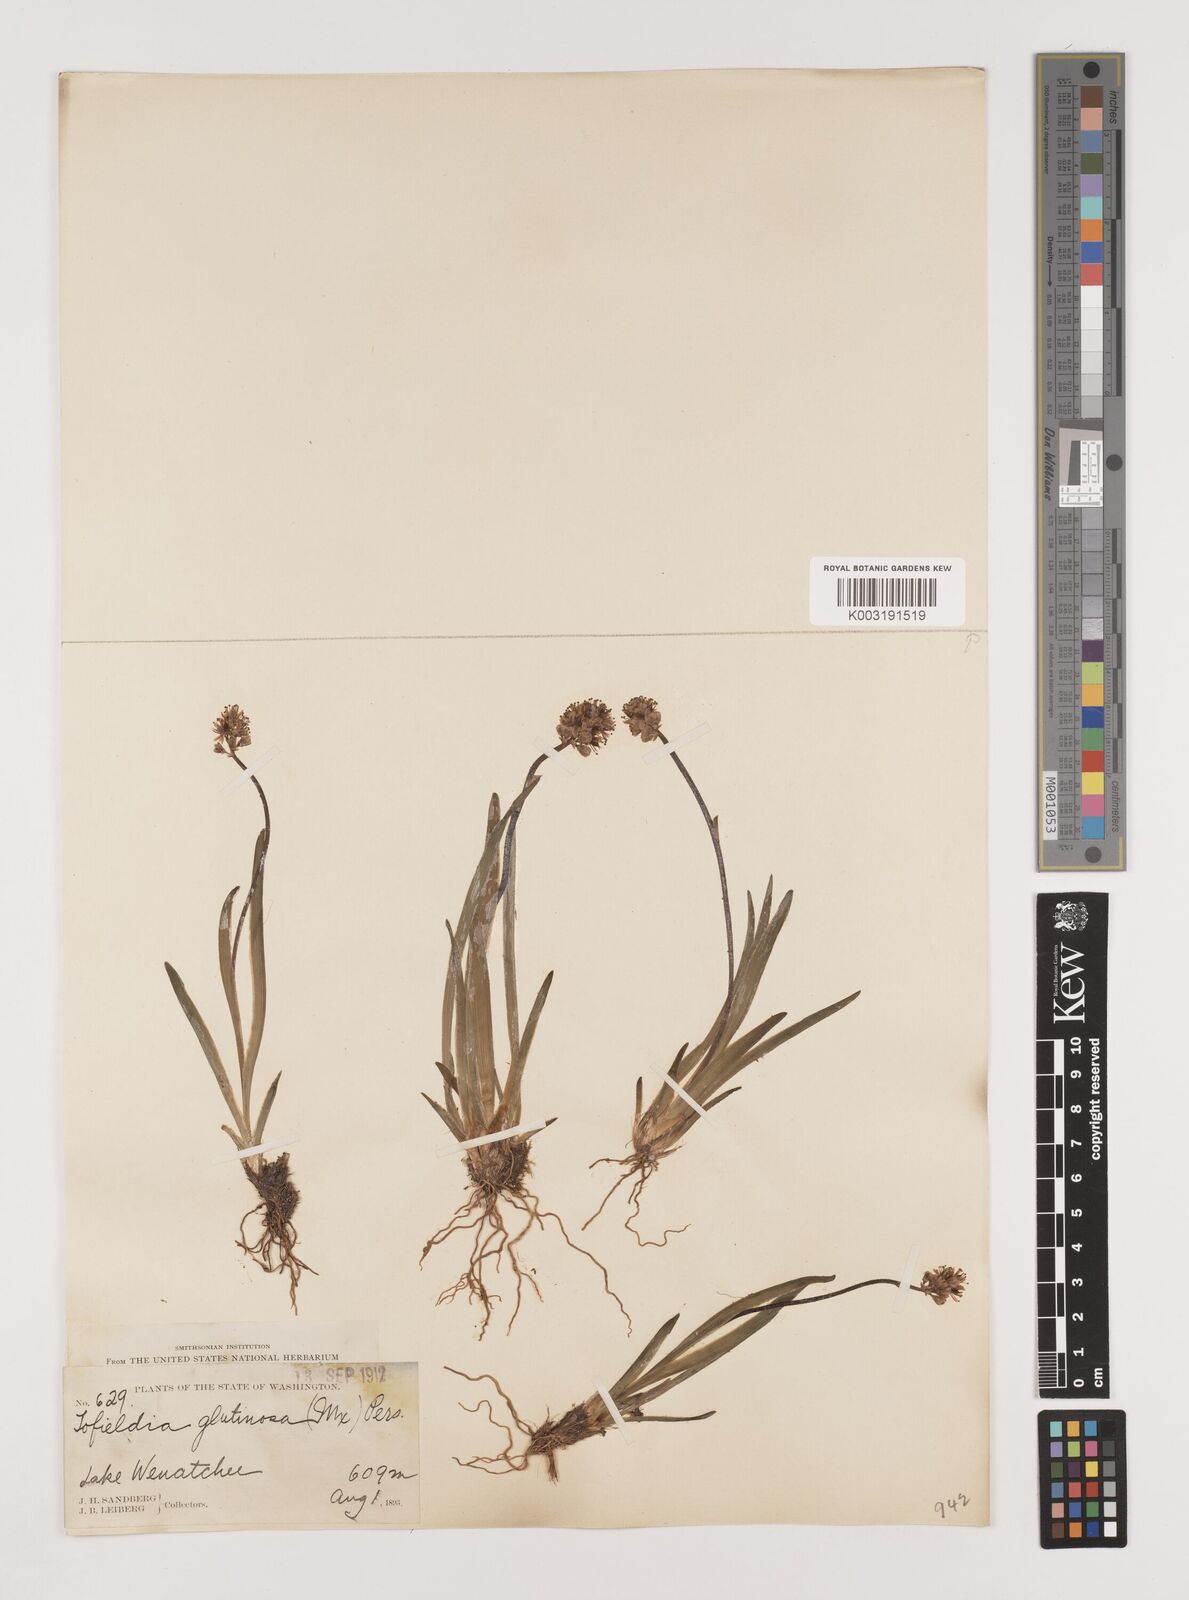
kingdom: Plantae
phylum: Tracheophyta
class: Liliopsida
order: Alismatales
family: Tofieldiaceae
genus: Triantha
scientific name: Triantha glutinosa
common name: Glutinous tofieldia
